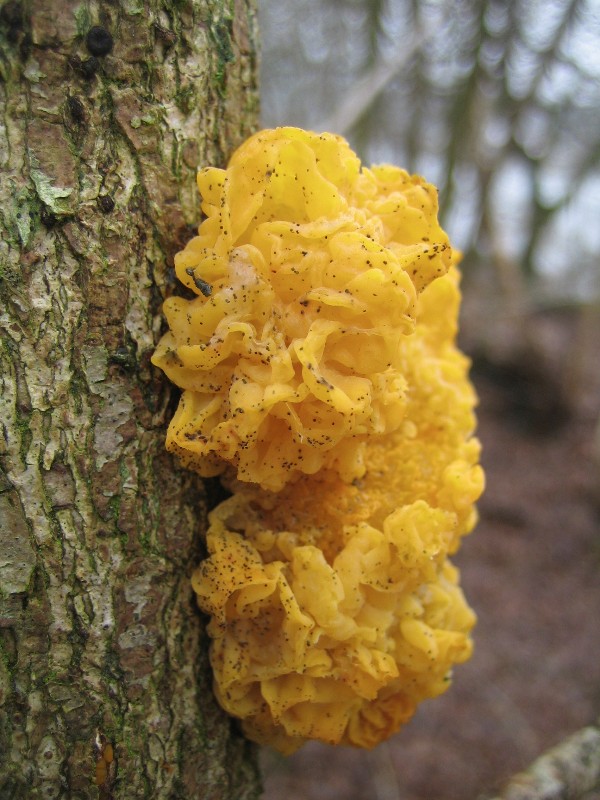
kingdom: Fungi
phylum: Basidiomycota
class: Tremellomycetes
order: Tremellales
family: Tremellaceae
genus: Tremella
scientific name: Tremella mesenterica
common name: gul bævresvamp
